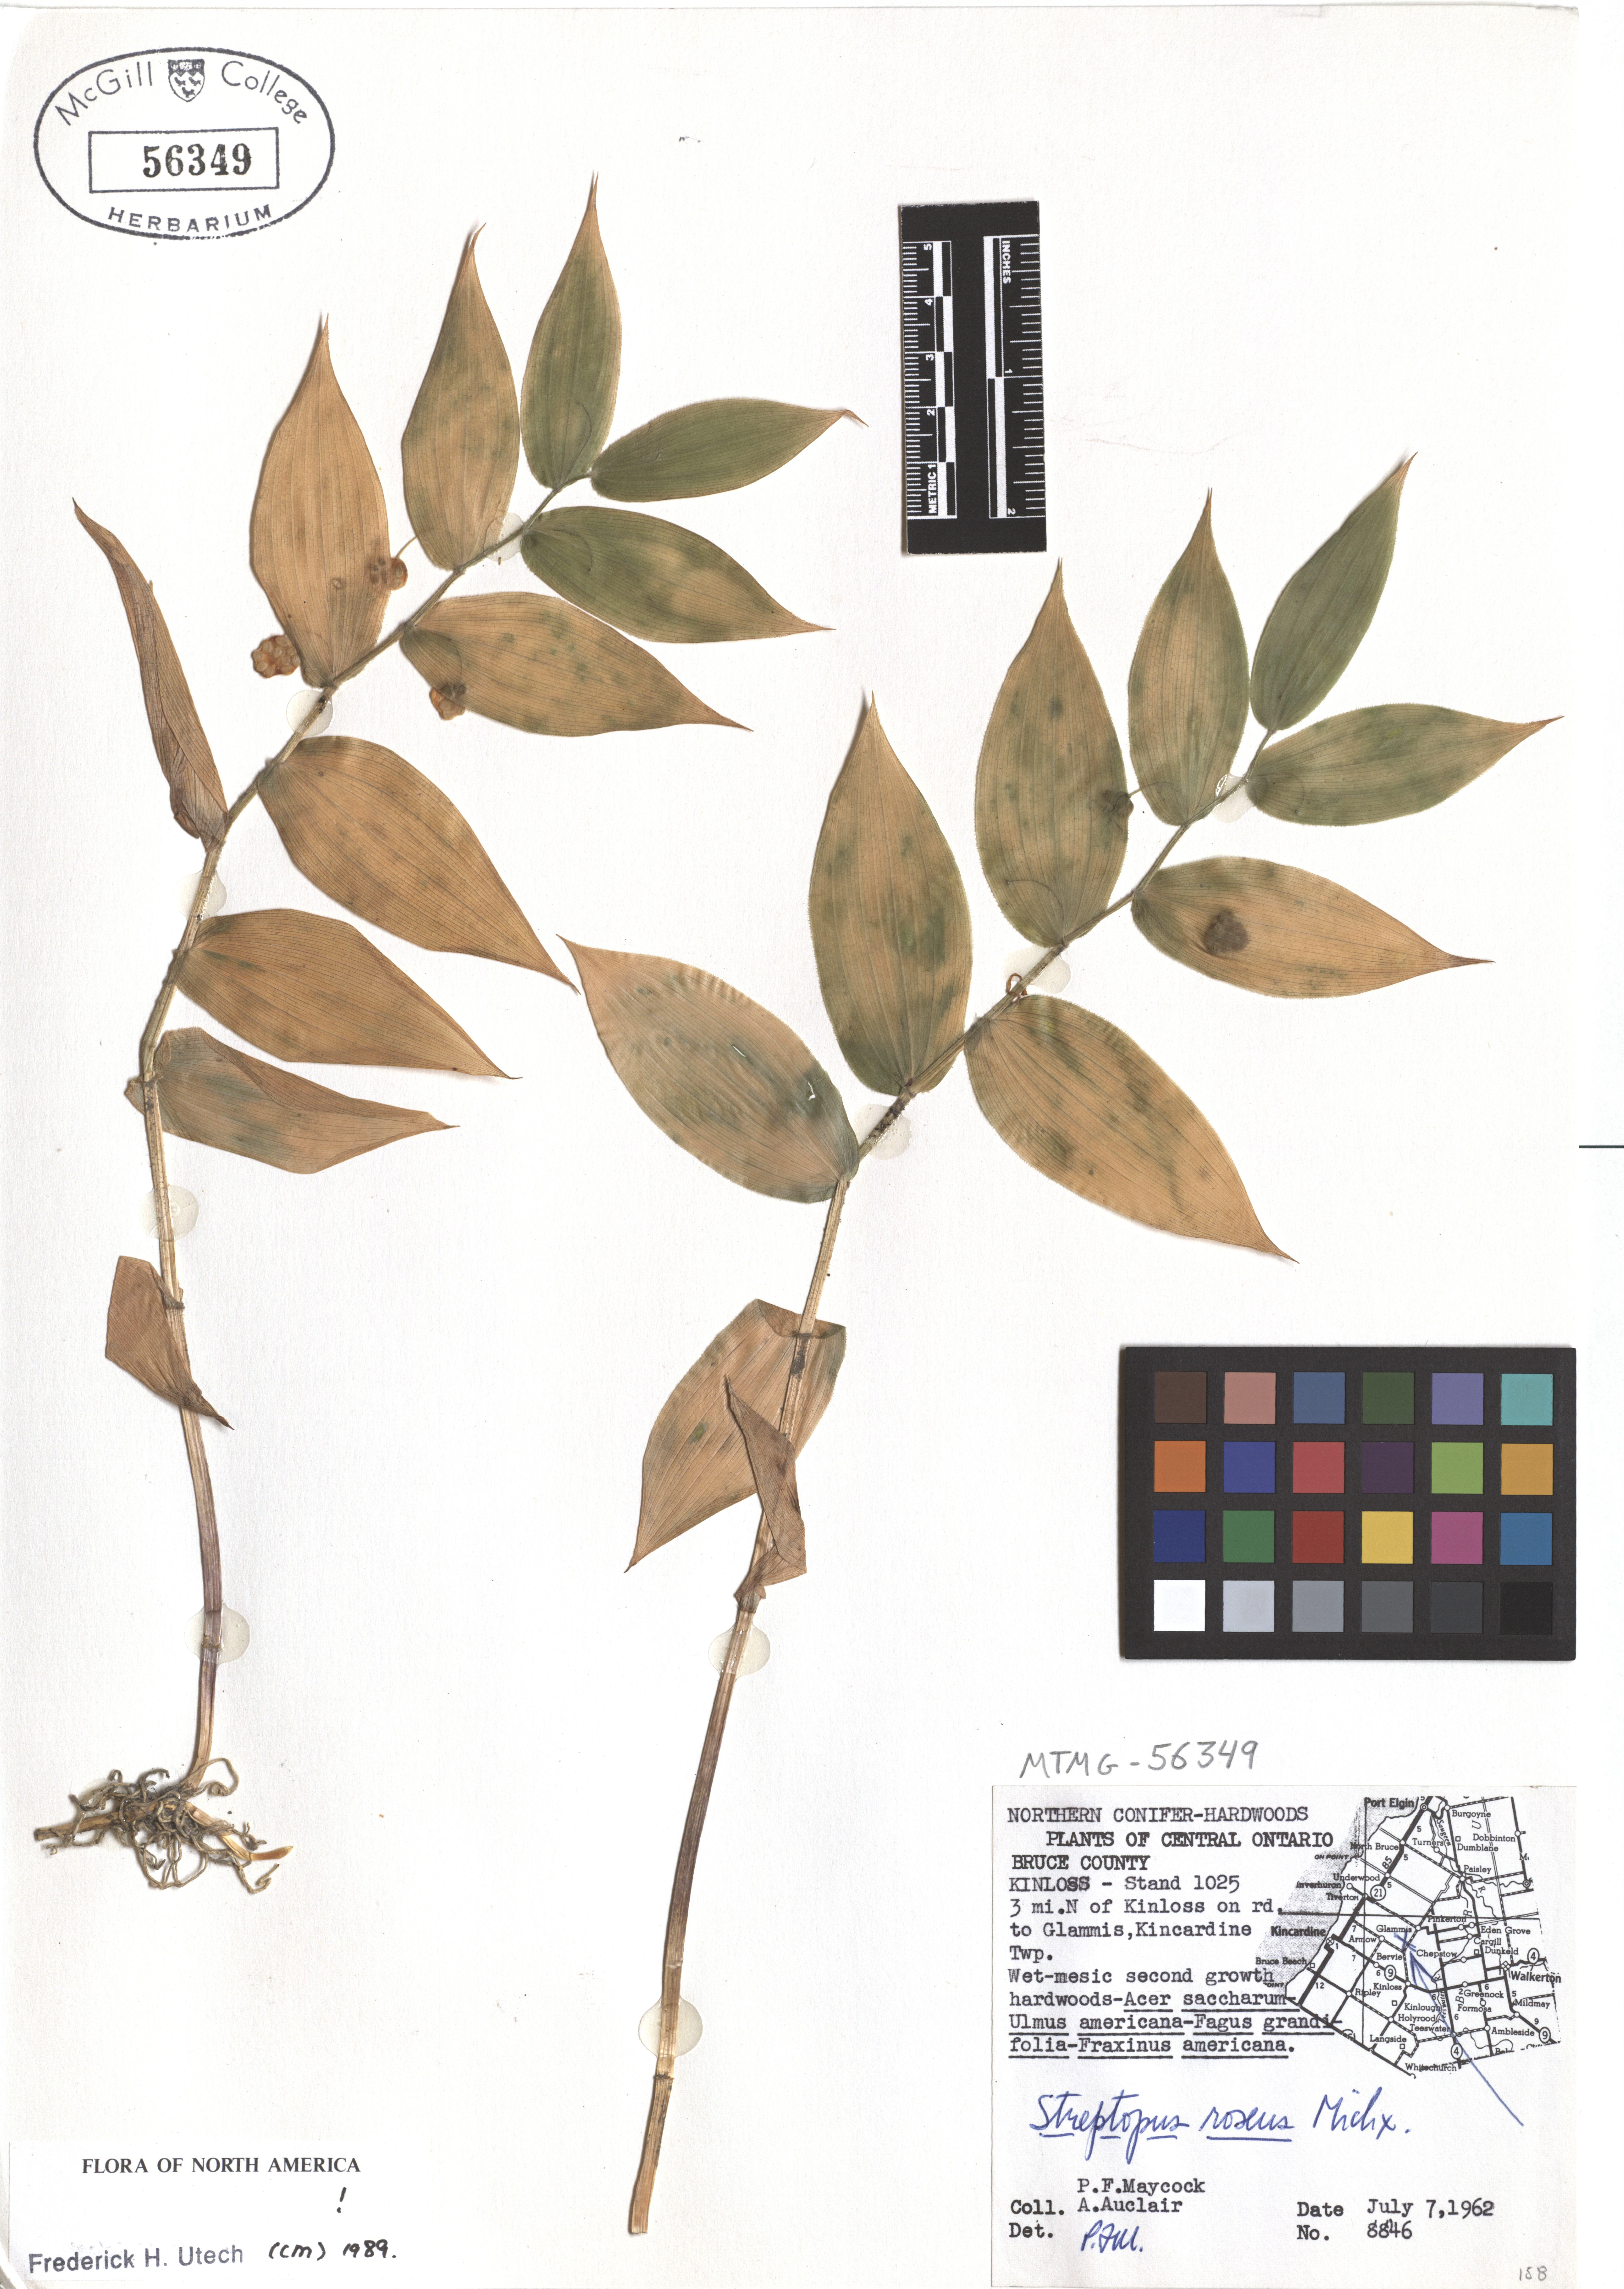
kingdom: Plantae
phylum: Tracheophyta
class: Liliopsida
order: Liliales
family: Liliaceae
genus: Streptopus
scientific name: Streptopus lanceolatus
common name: Rose mandarin
